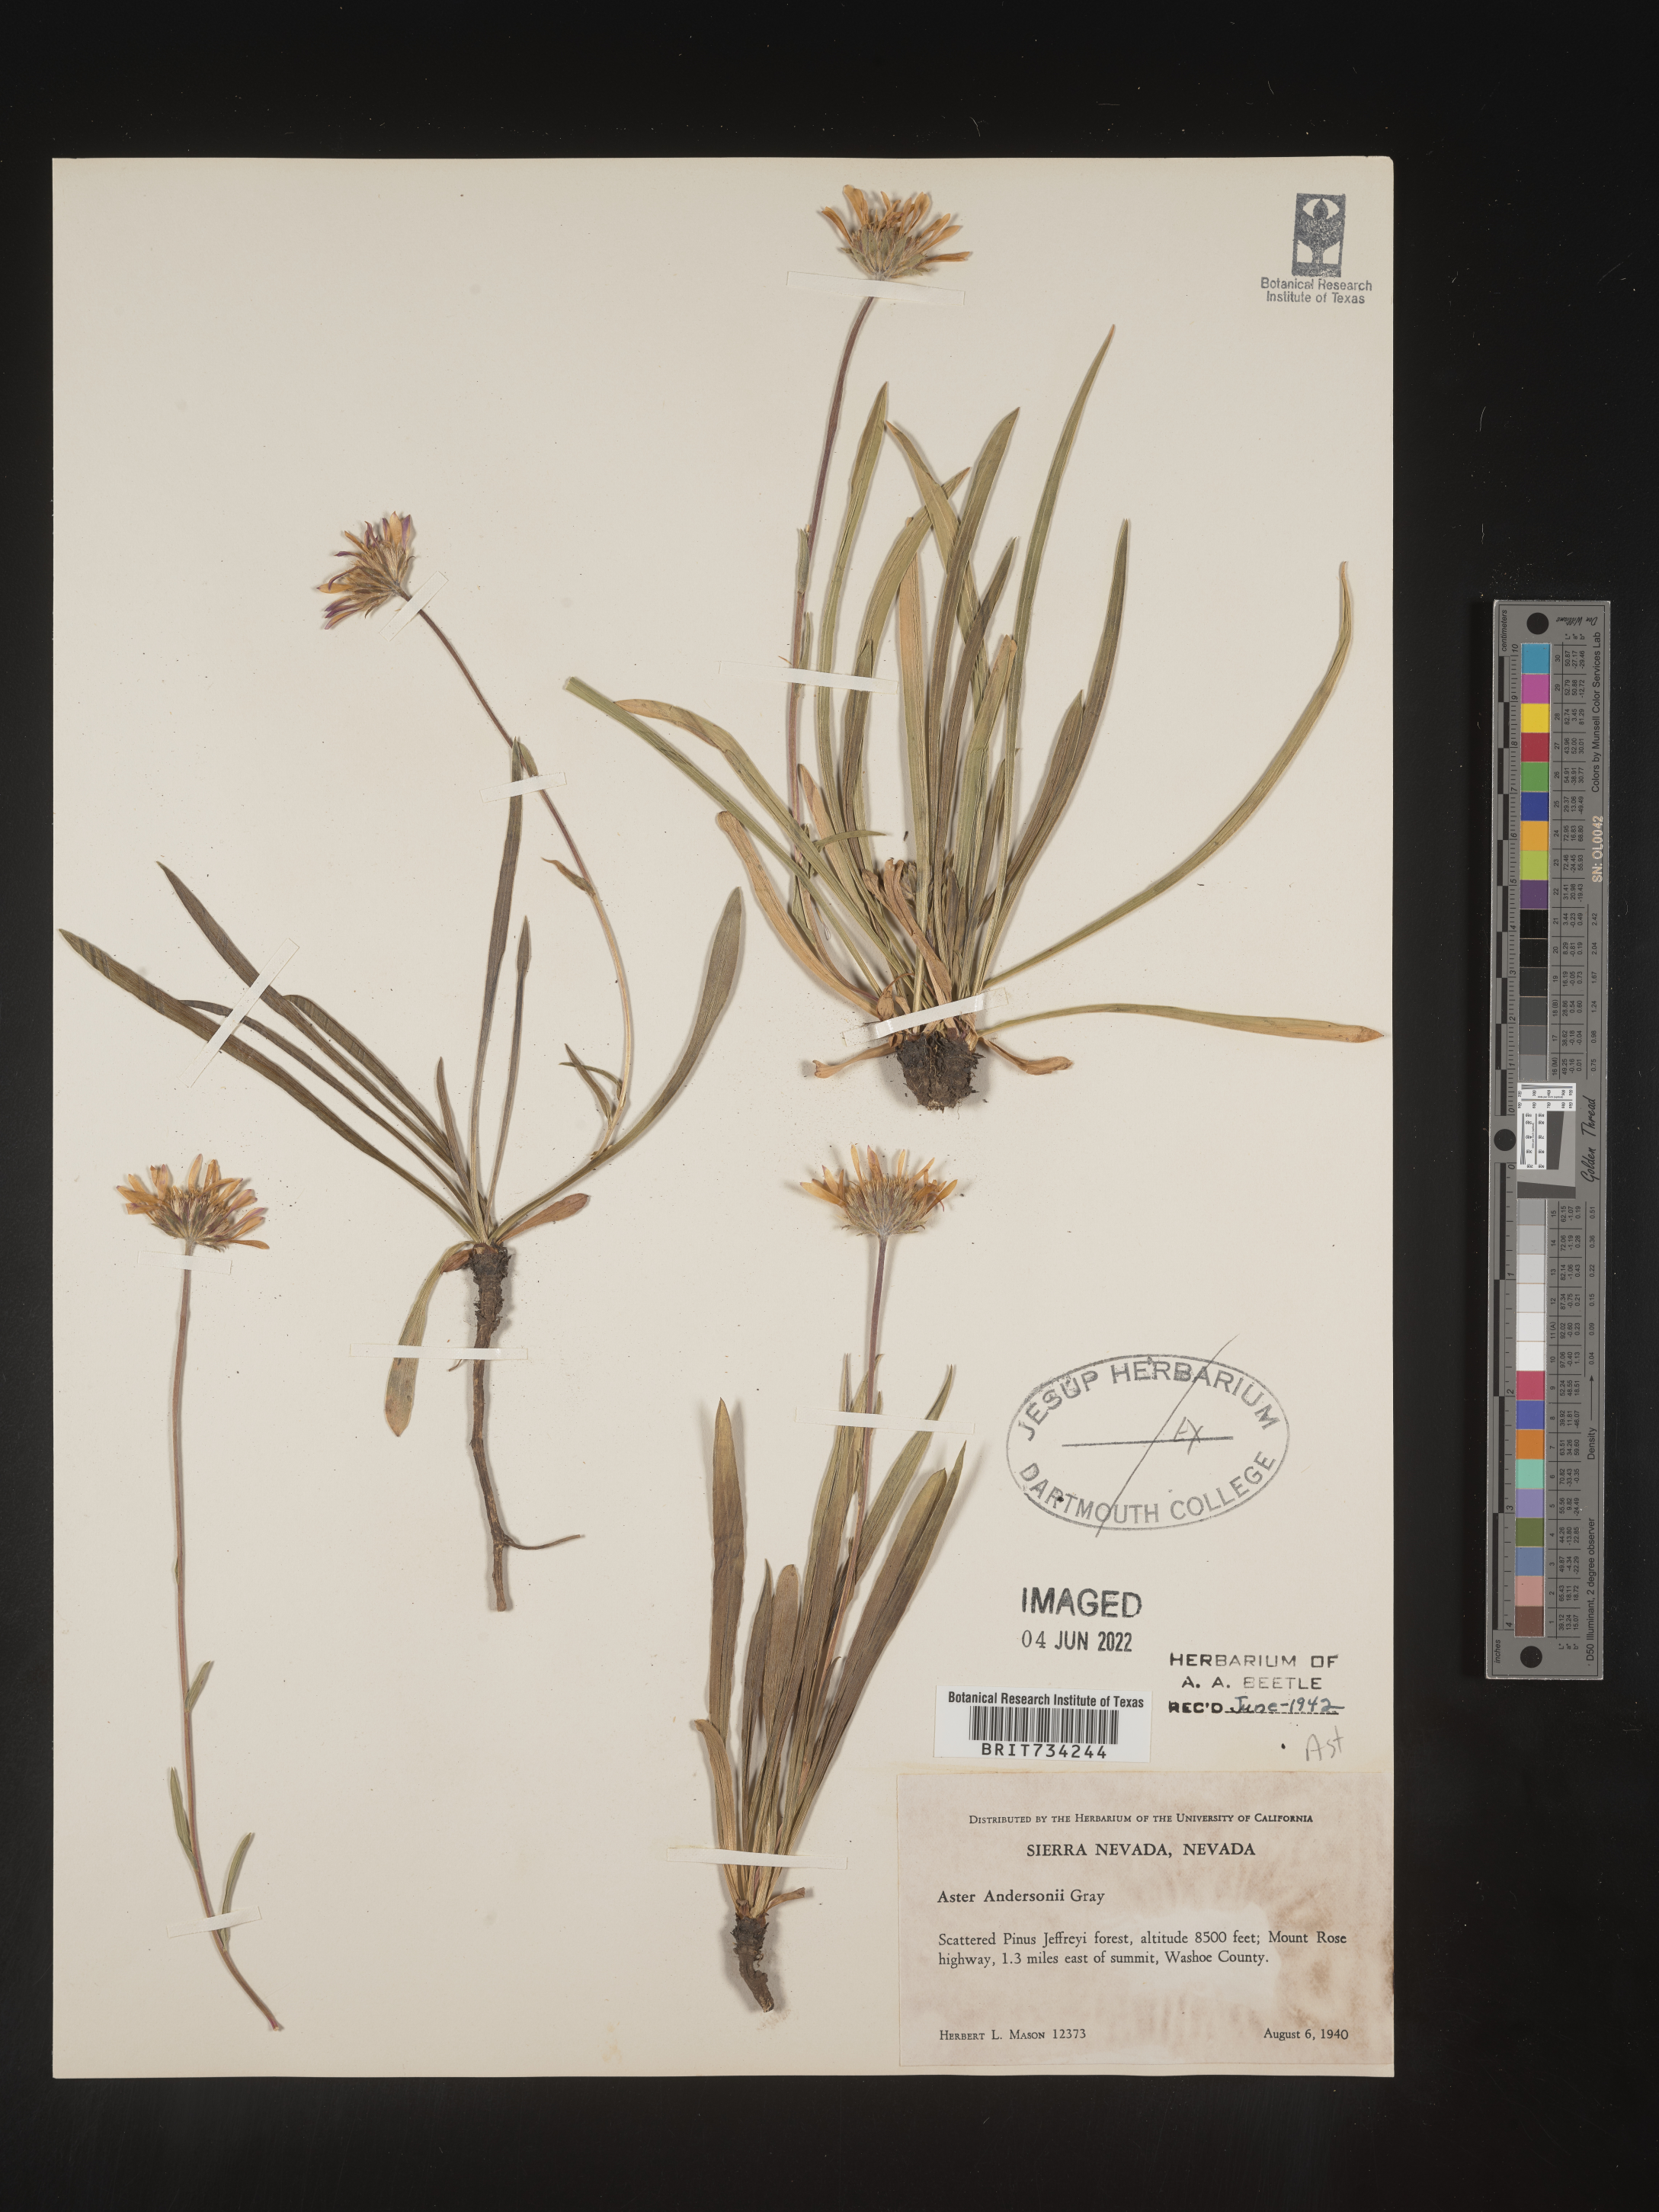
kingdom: Plantae
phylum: Tracheophyta
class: Magnoliopsida
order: Asterales
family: Asteraceae
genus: Oreostemma
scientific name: Oreostemma alpigenum
